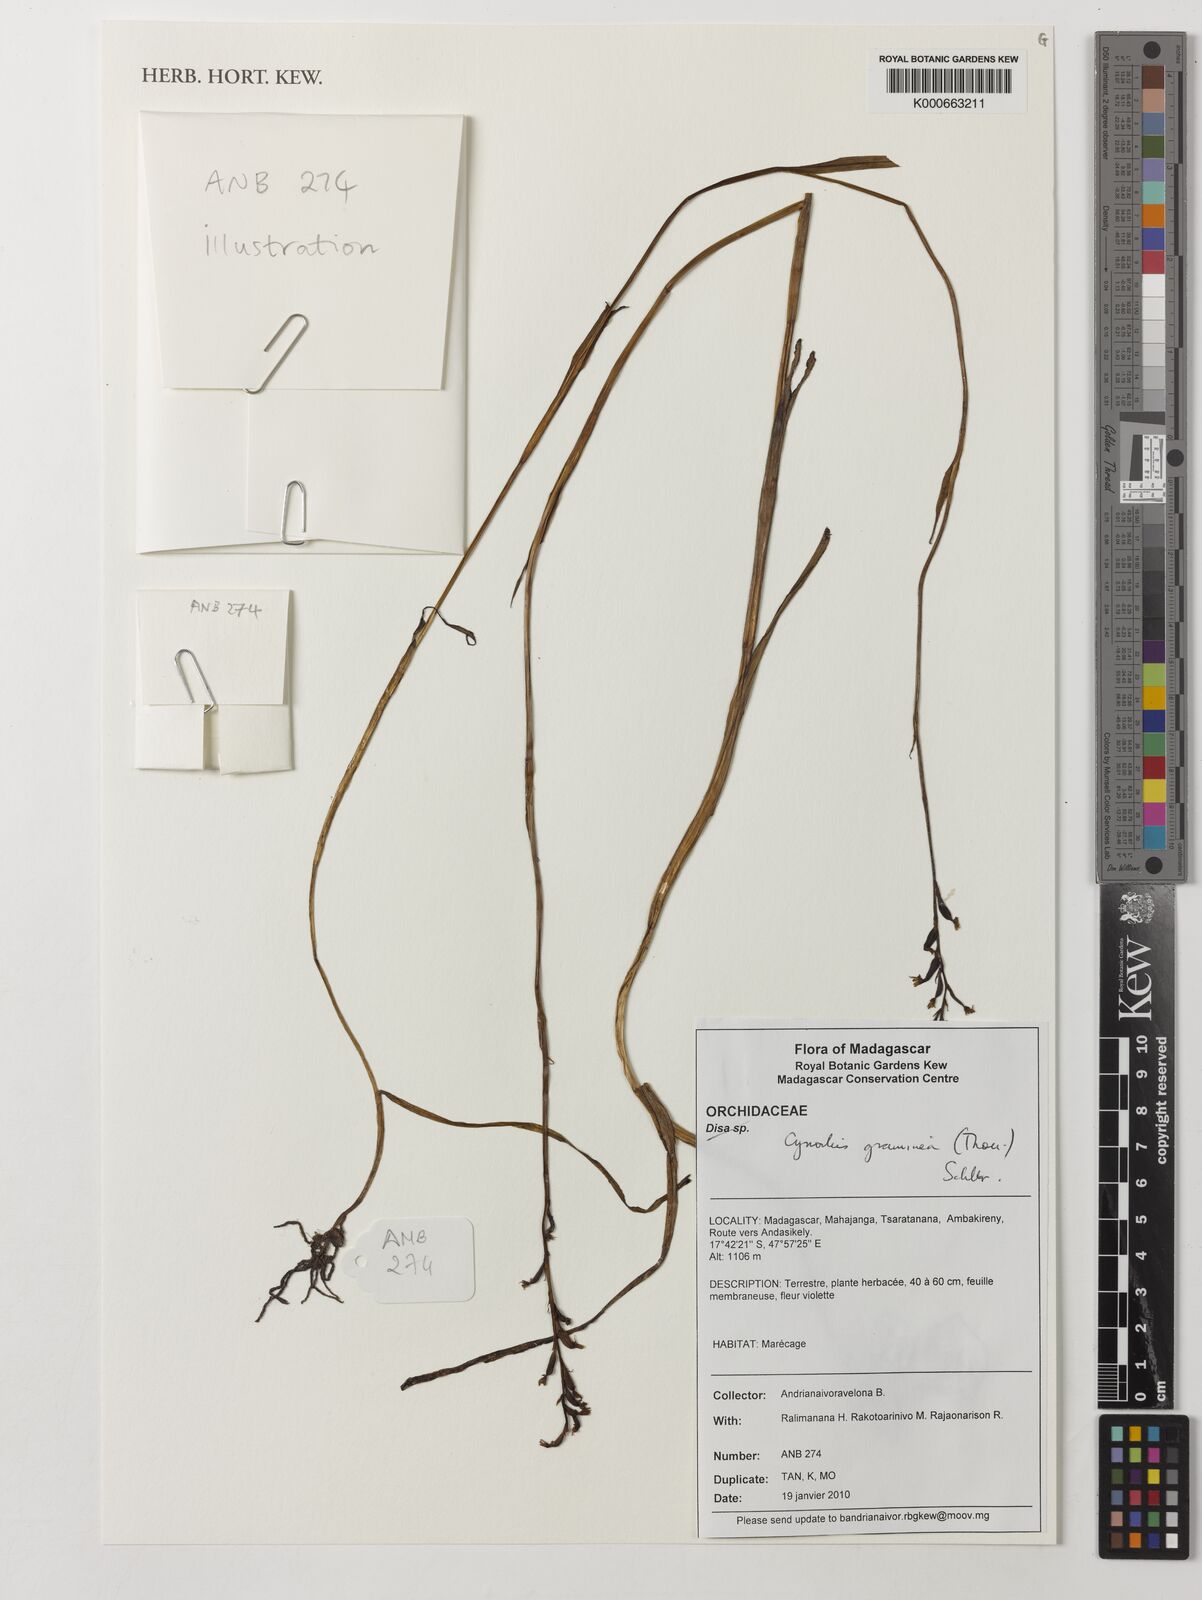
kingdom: Plantae
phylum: Tracheophyta
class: Liliopsida
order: Asparagales
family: Orchidaceae
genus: Cynorkis
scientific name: Cynorkis graminea
